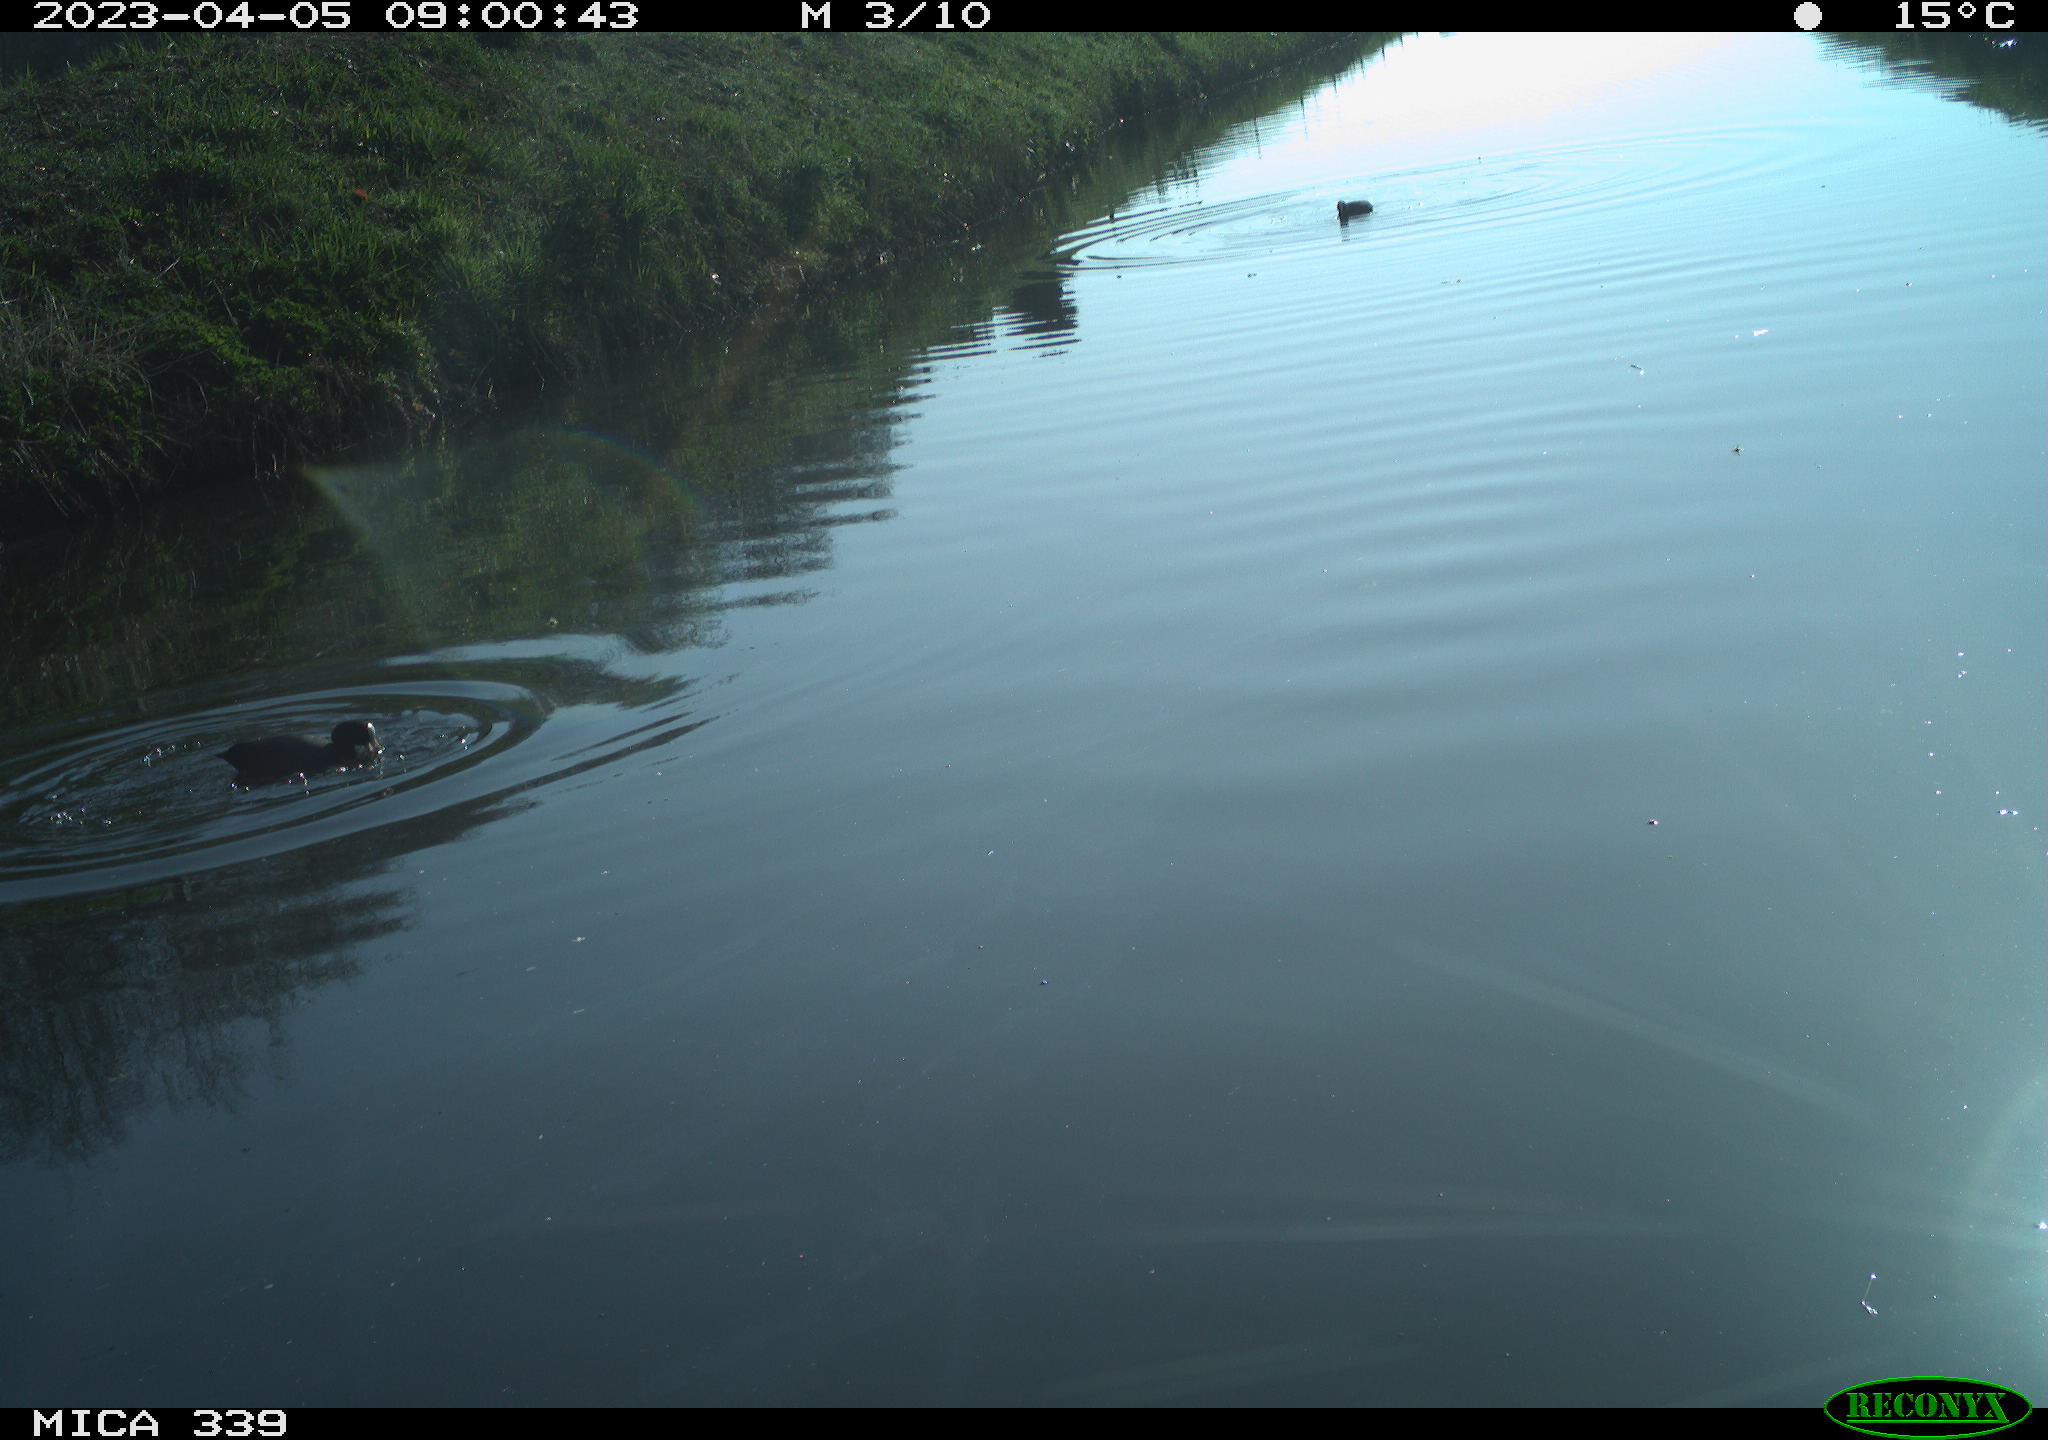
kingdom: Animalia
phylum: Chordata
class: Aves
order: Gruiformes
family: Rallidae
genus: Fulica
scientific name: Fulica atra
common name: Eurasian coot
